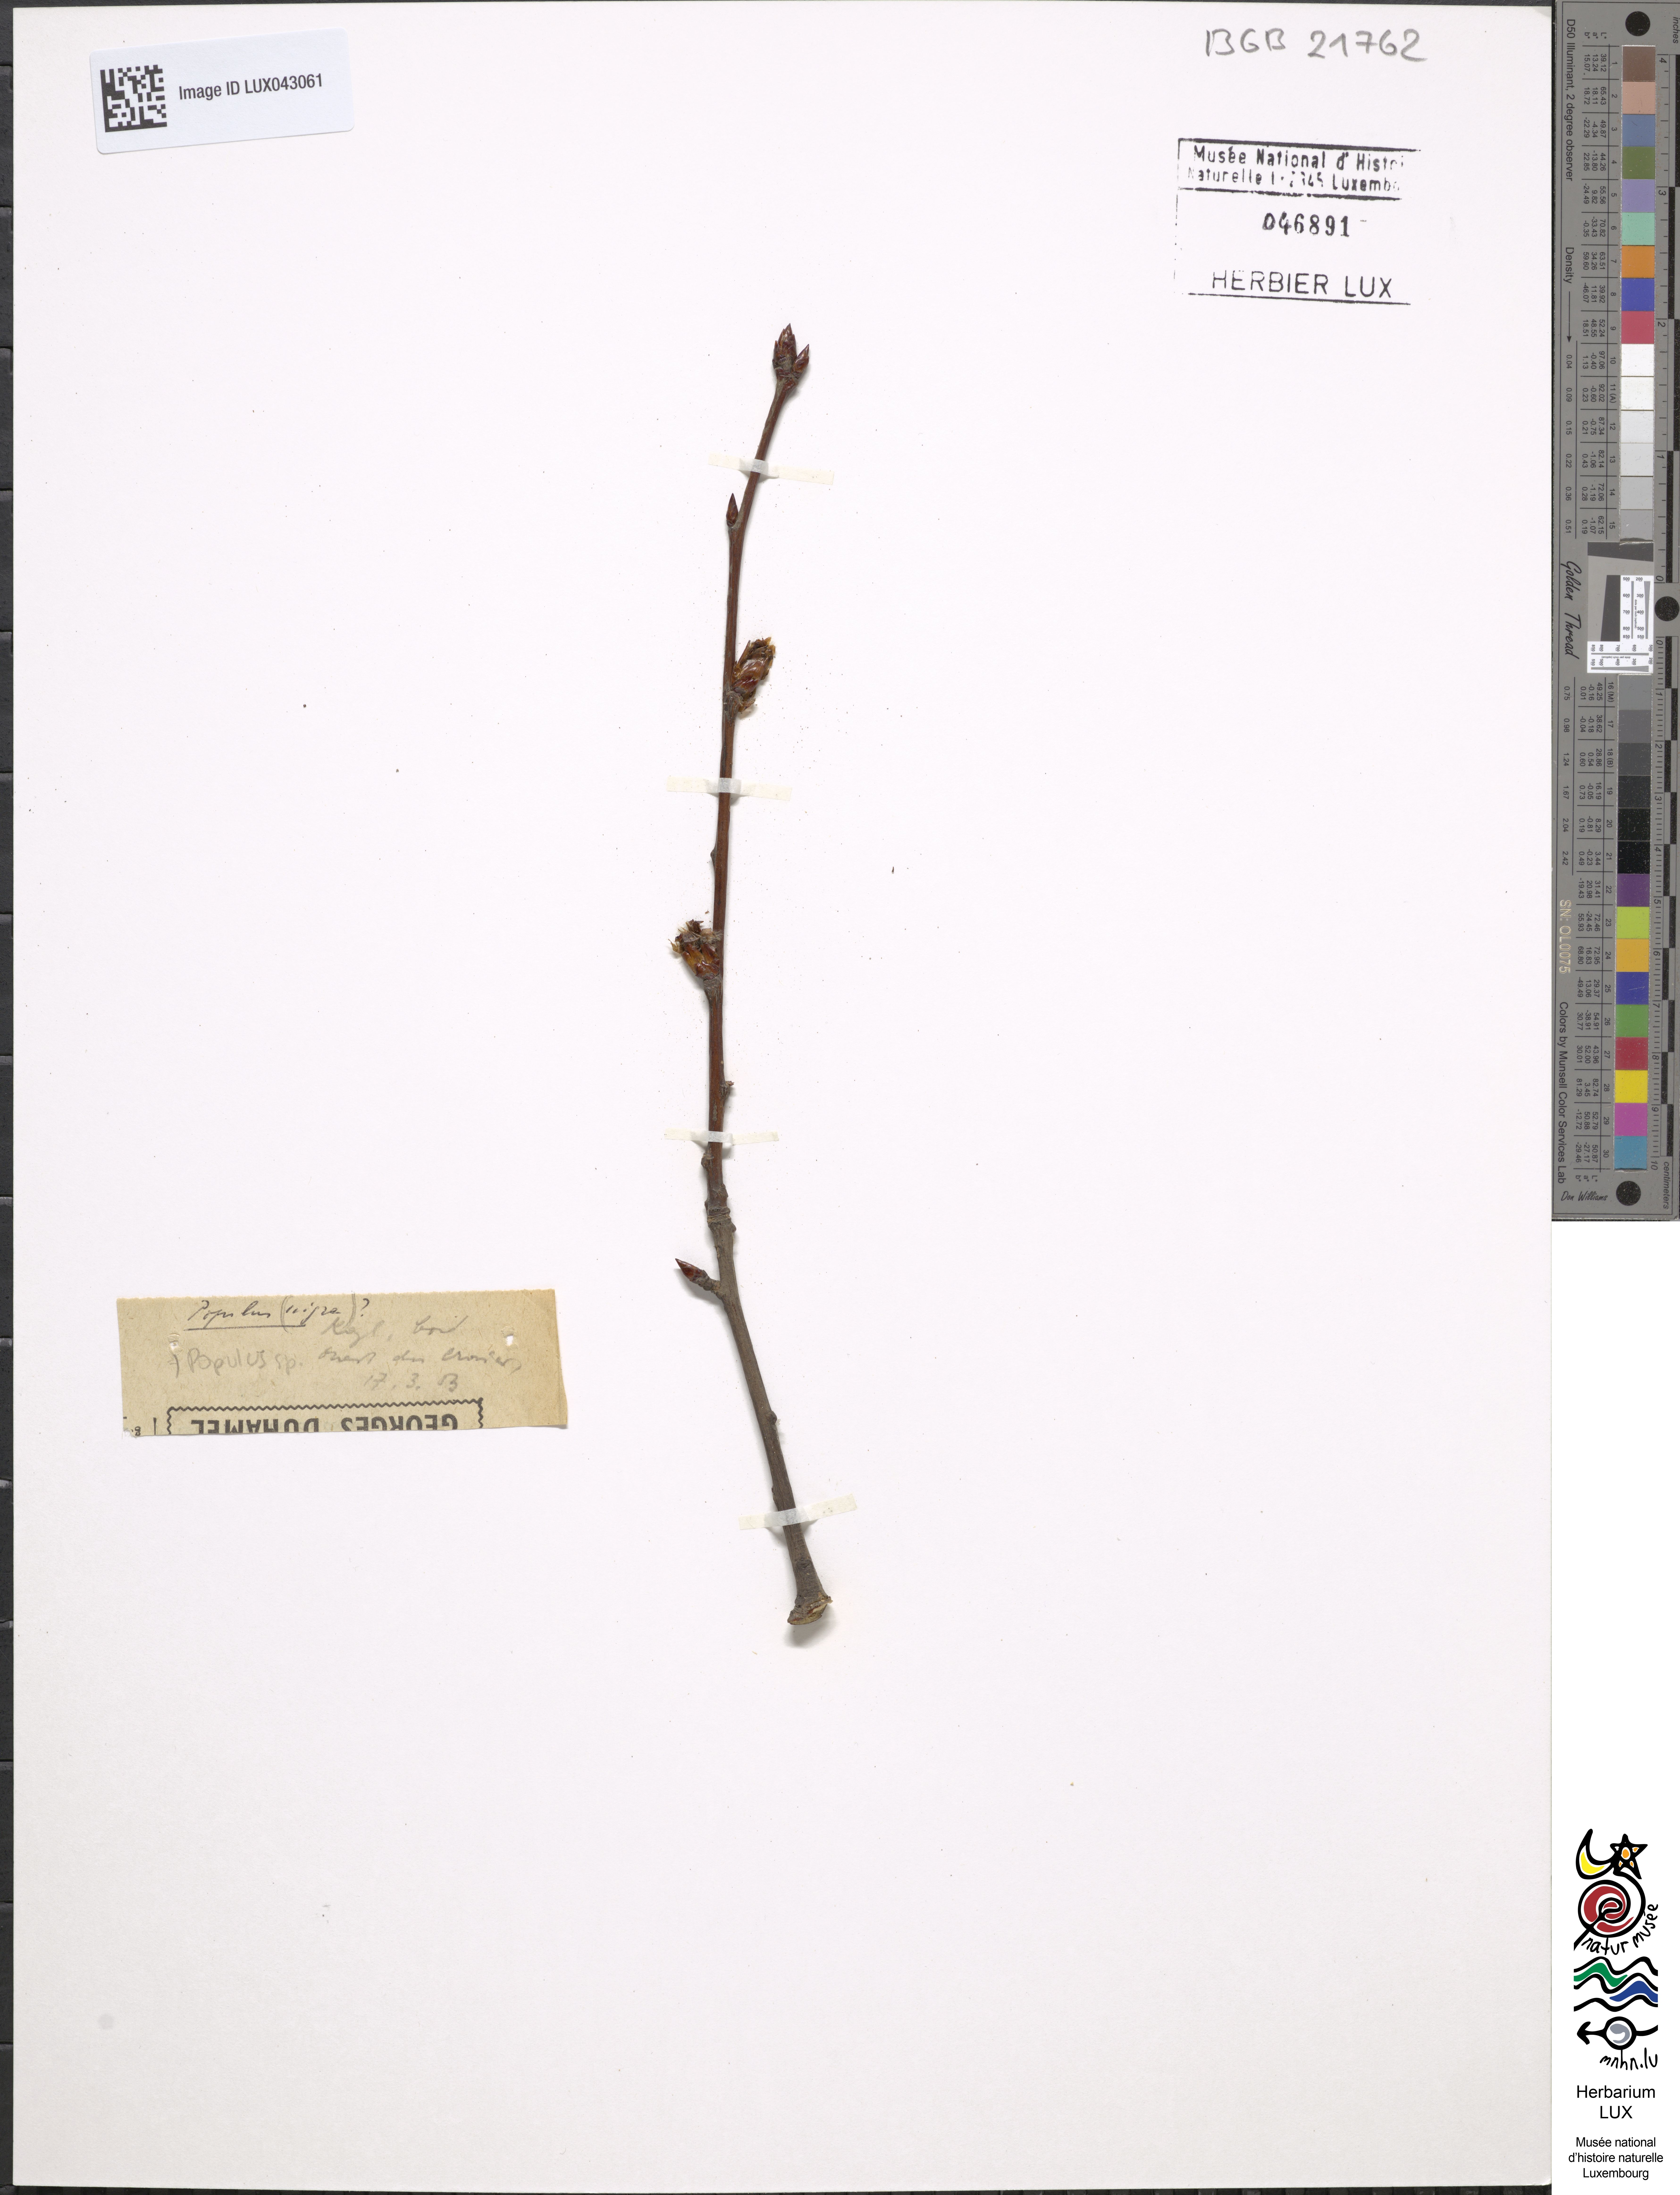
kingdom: Plantae
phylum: Tracheophyta
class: Magnoliopsida
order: Malpighiales
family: Salicaceae
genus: Populus
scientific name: Populus
